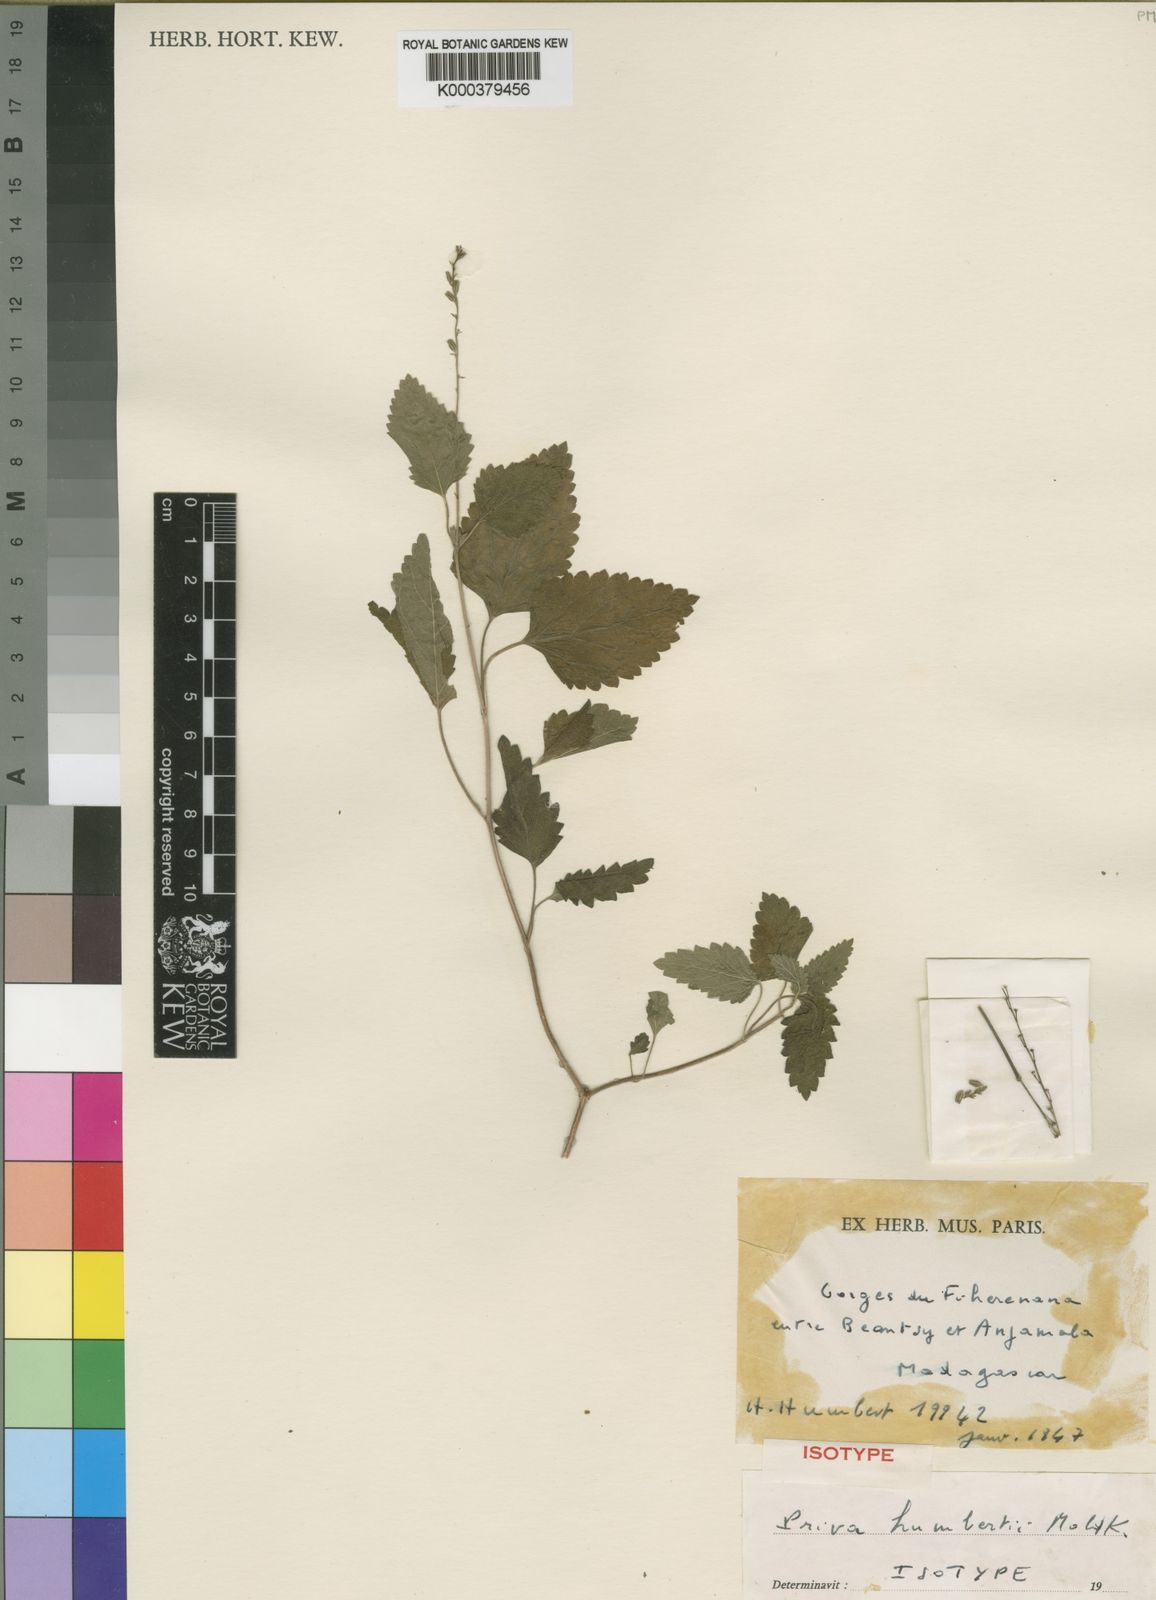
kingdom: Plantae
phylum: Tracheophyta
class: Magnoliopsida
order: Lamiales
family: Verbenaceae
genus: Priva
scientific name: Priva humbertii
